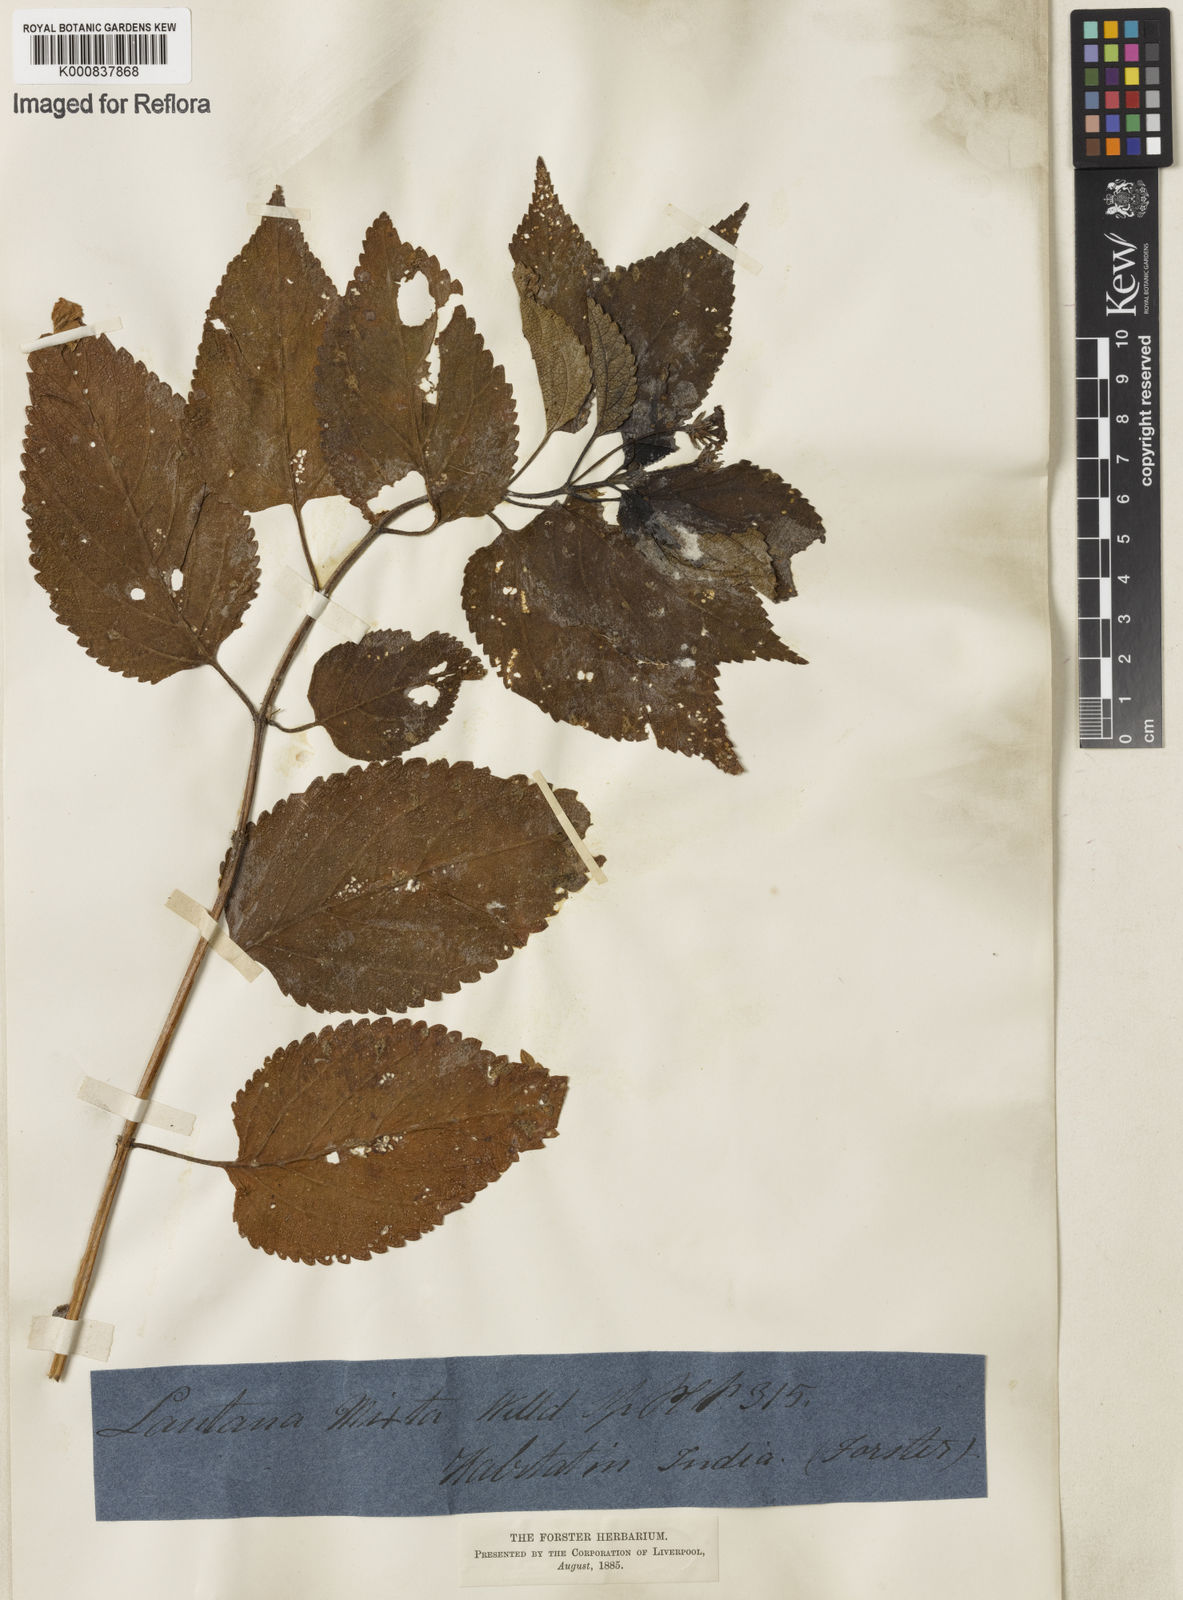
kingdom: Plantae
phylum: Tracheophyta
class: Magnoliopsida
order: Lamiales
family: Verbenaceae
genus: Lantana
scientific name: Lantana horrida
